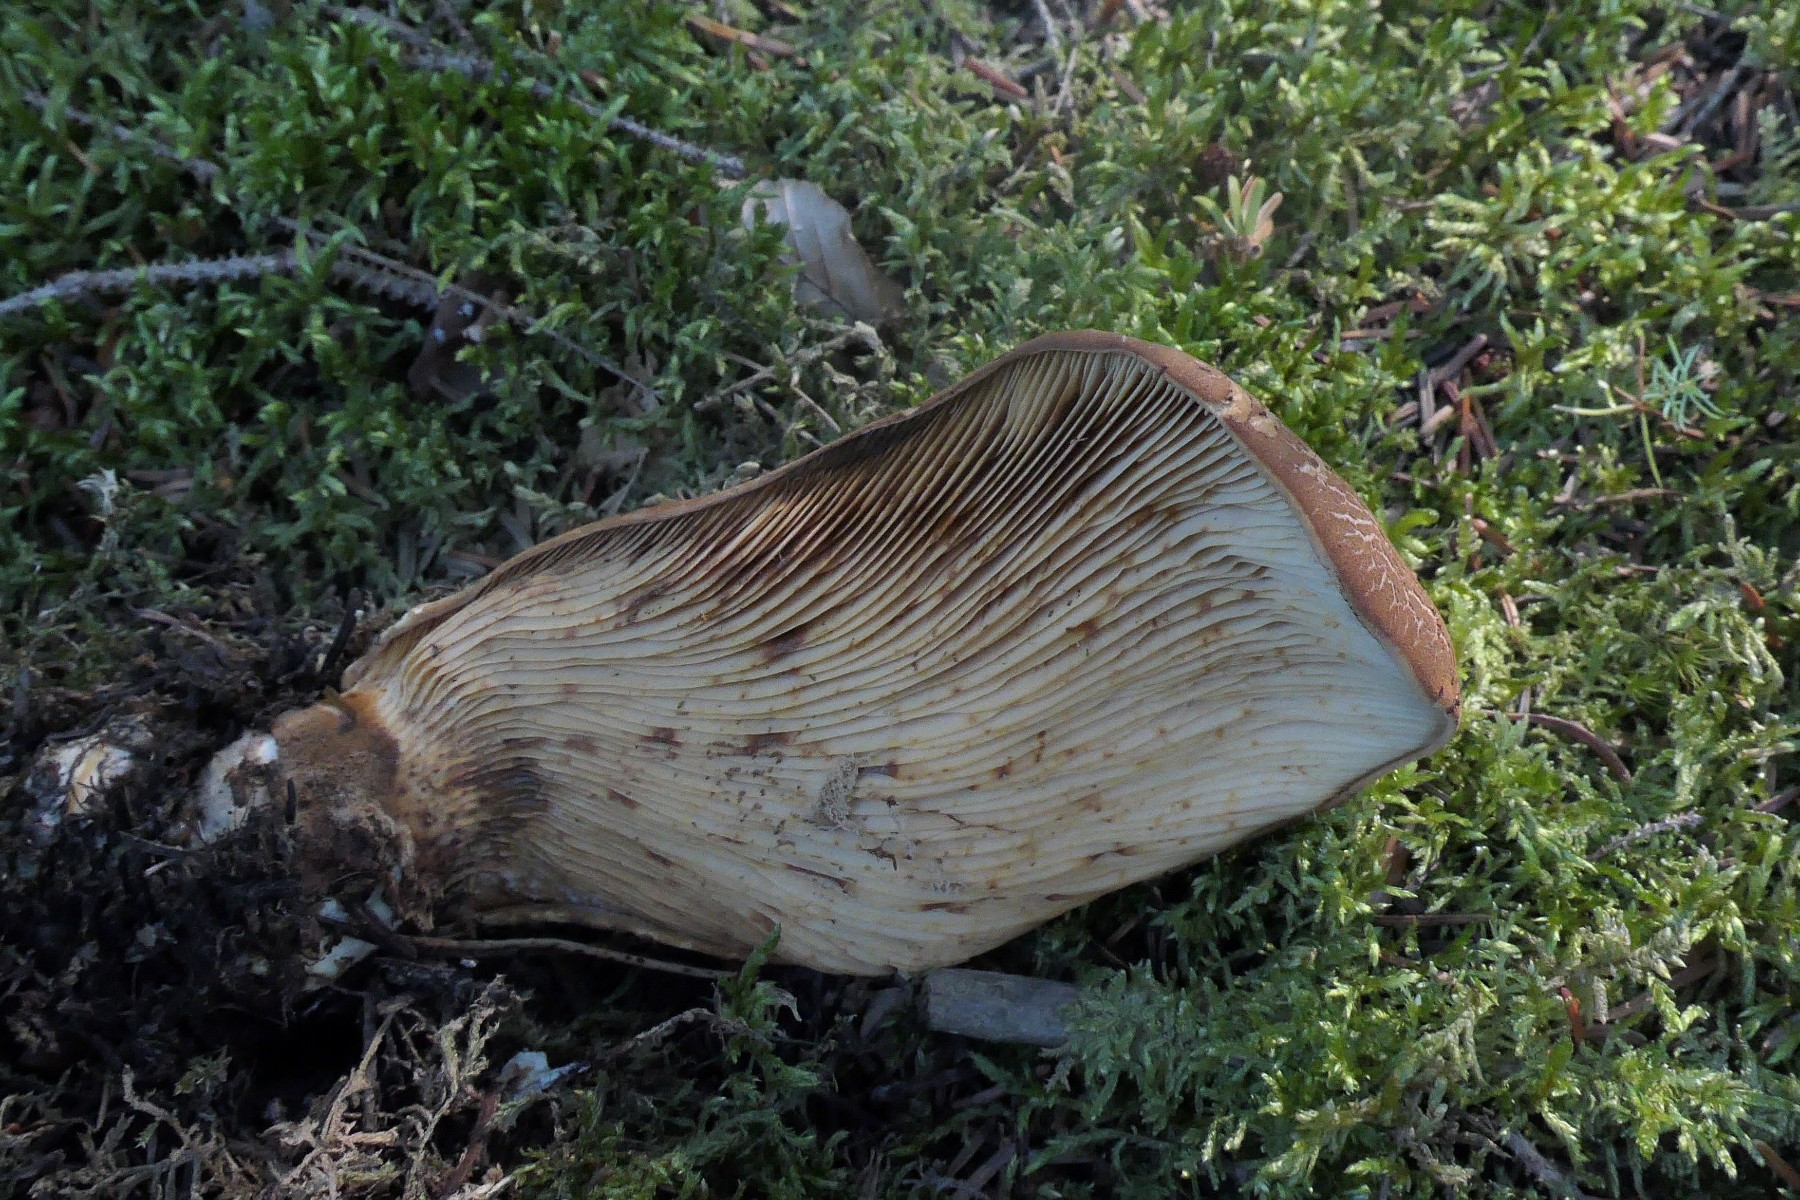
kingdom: Fungi
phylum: Basidiomycota
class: Agaricomycetes
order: Boletales
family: Tapinellaceae
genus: Tapinella
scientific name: Tapinella atrotomentosa
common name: sortfiltet viftesvamp
